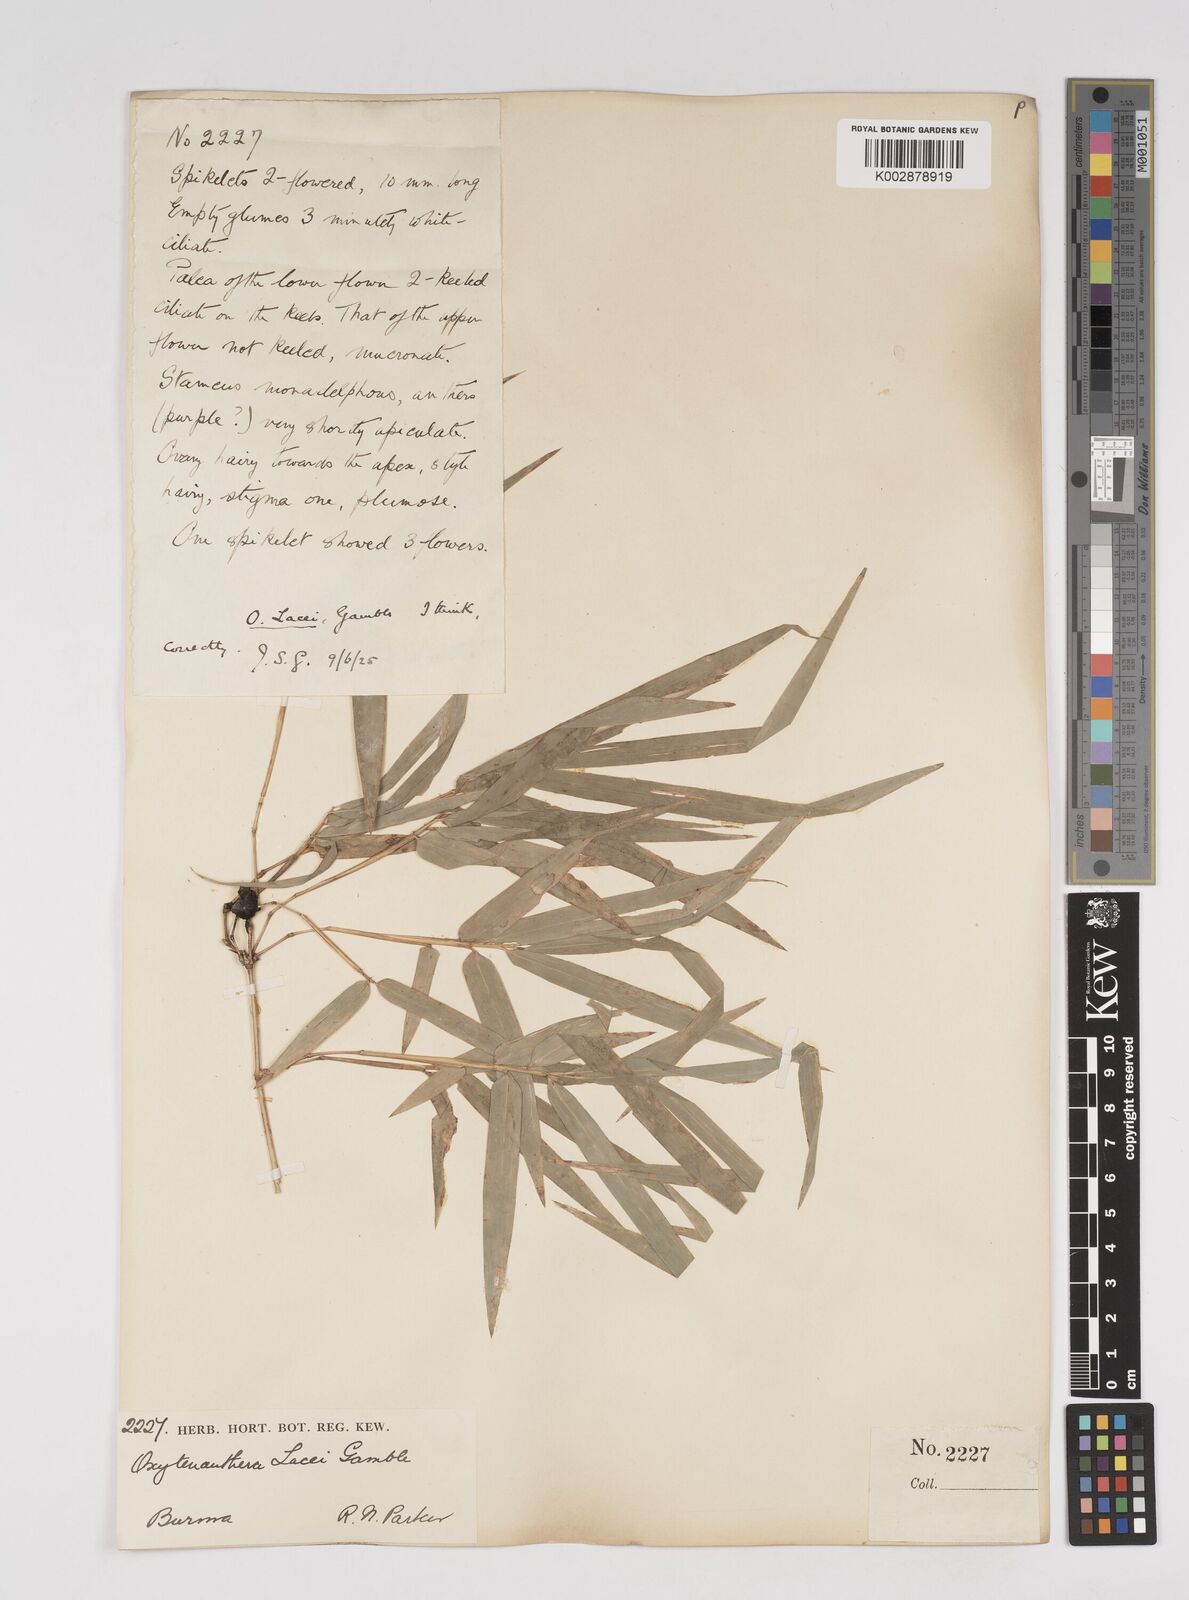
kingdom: Plantae
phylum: Tracheophyta
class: Liliopsida
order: Poales
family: Poaceae
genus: Dendrocalamus
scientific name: Dendrocalamus
